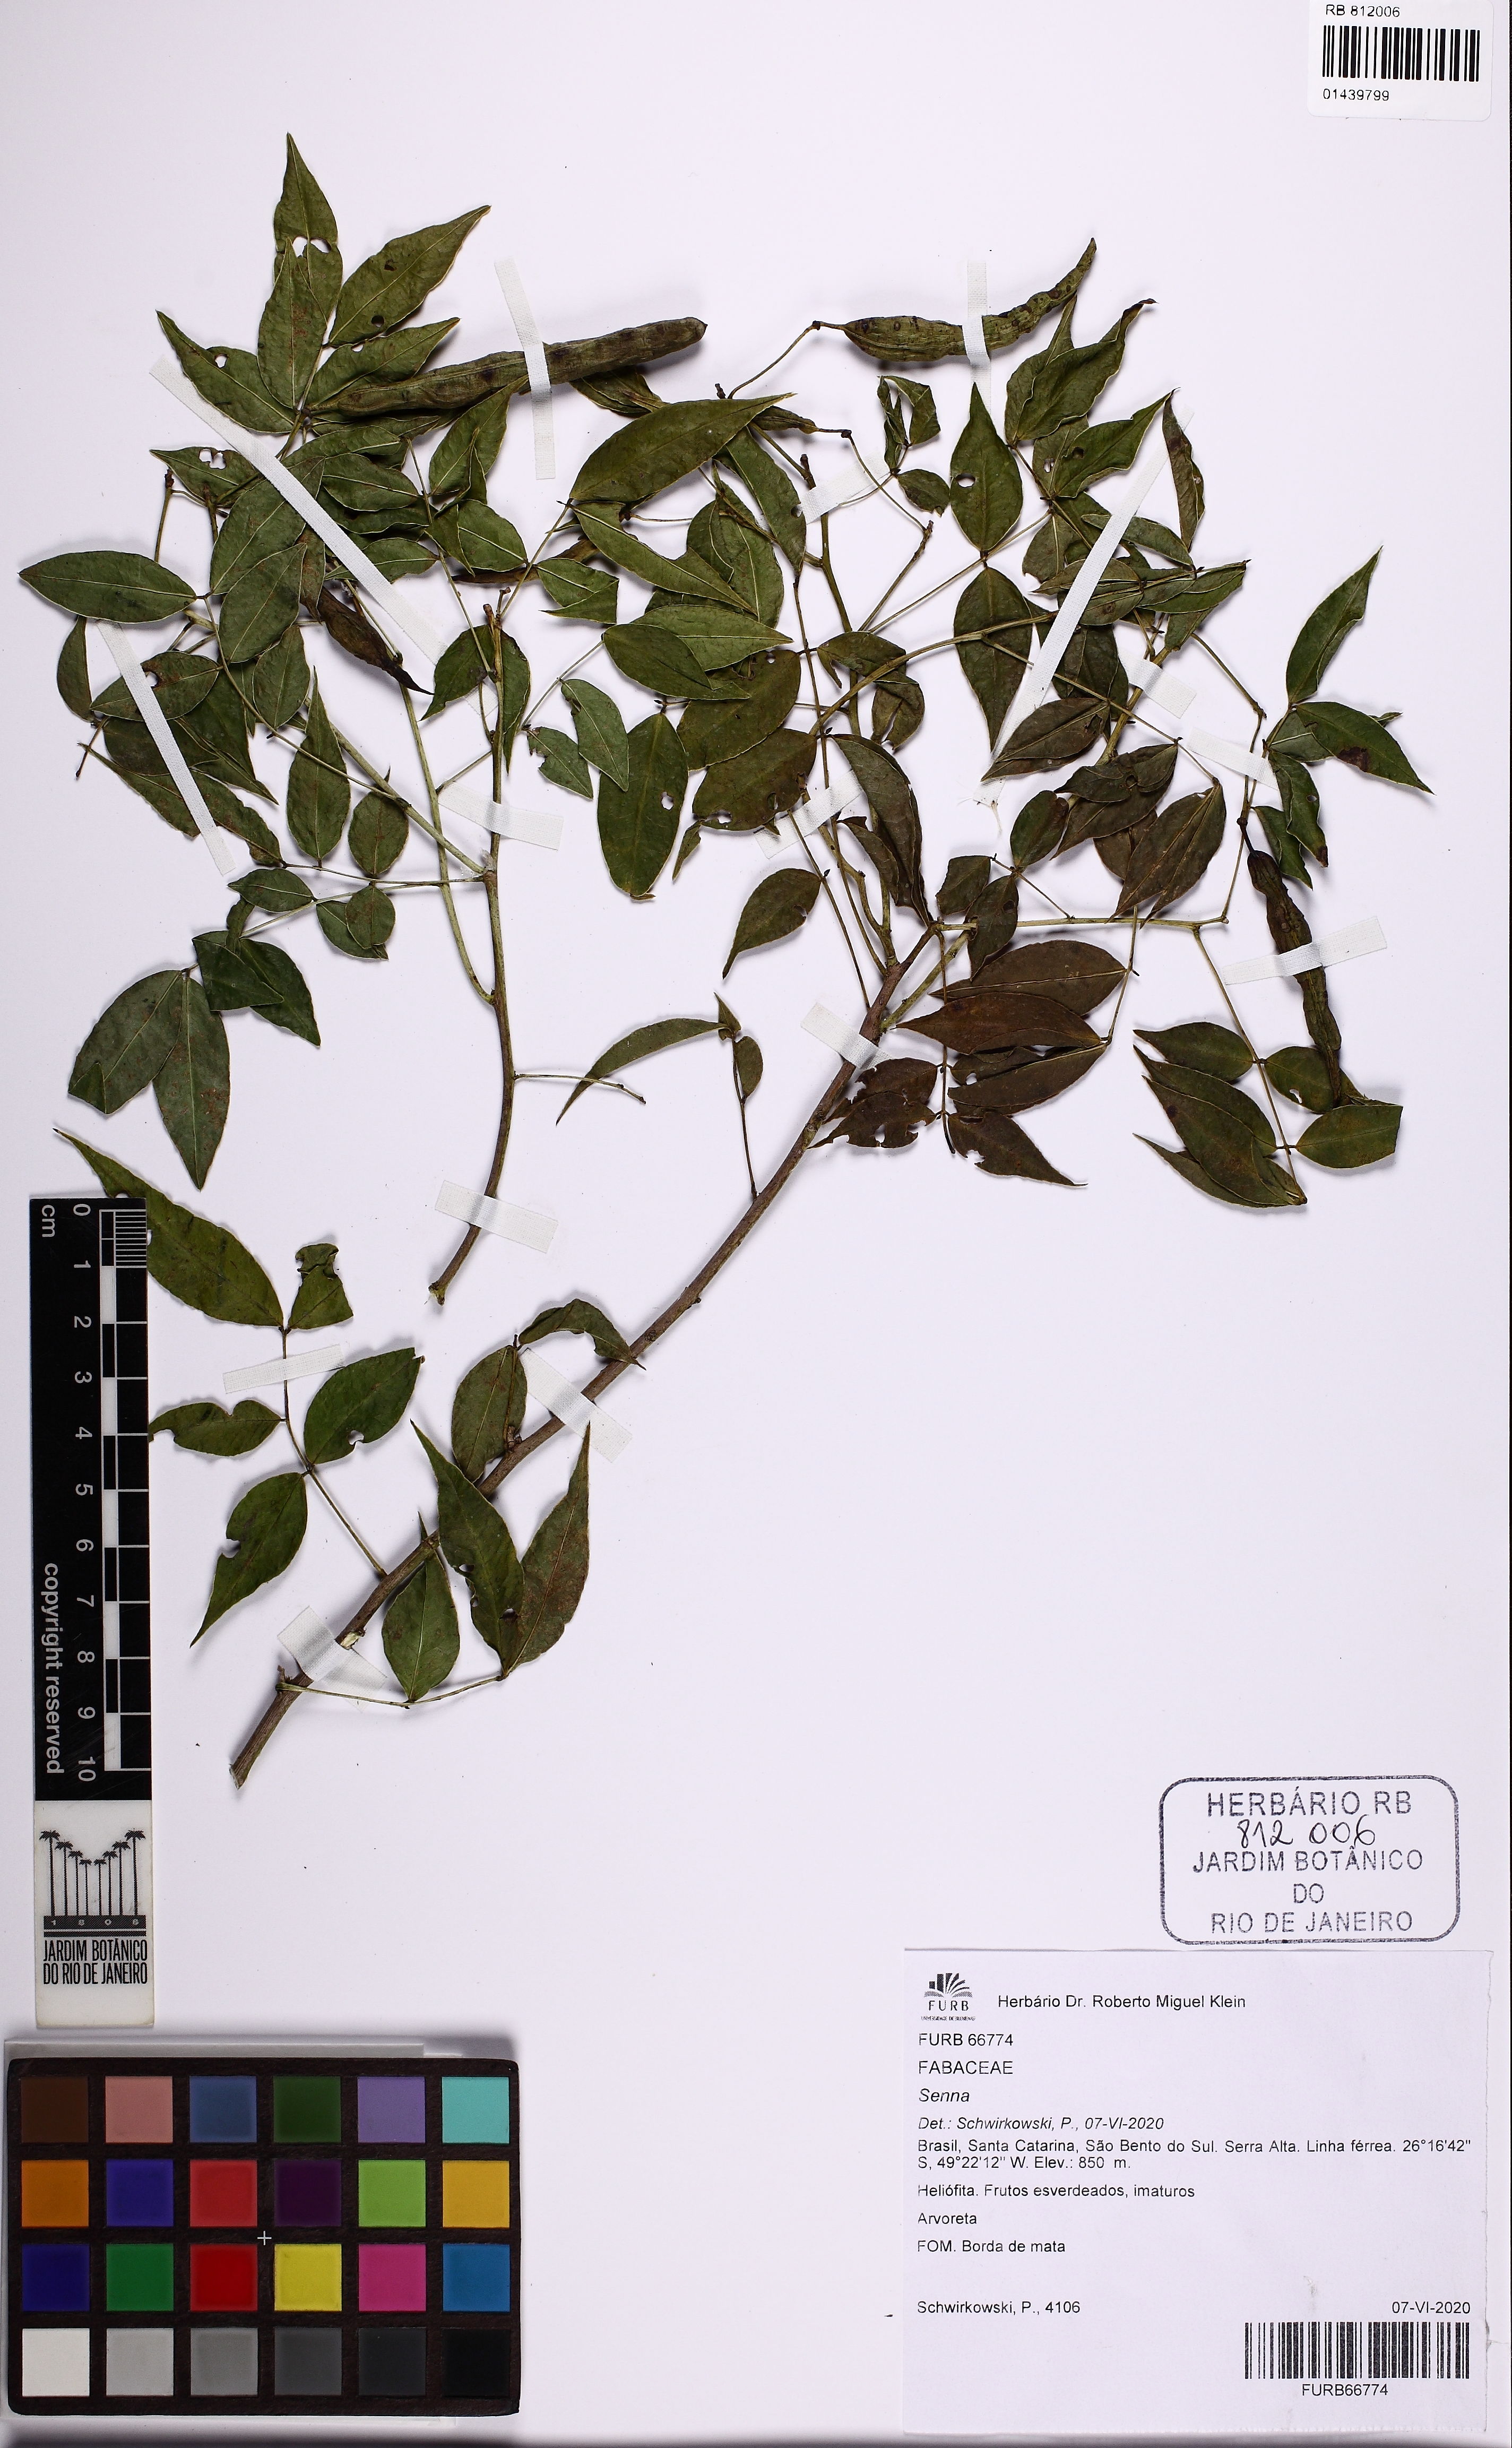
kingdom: Plantae
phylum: Tracheophyta
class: Magnoliopsida
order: Fabales
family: Fabaceae
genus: Senna
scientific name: Senna
